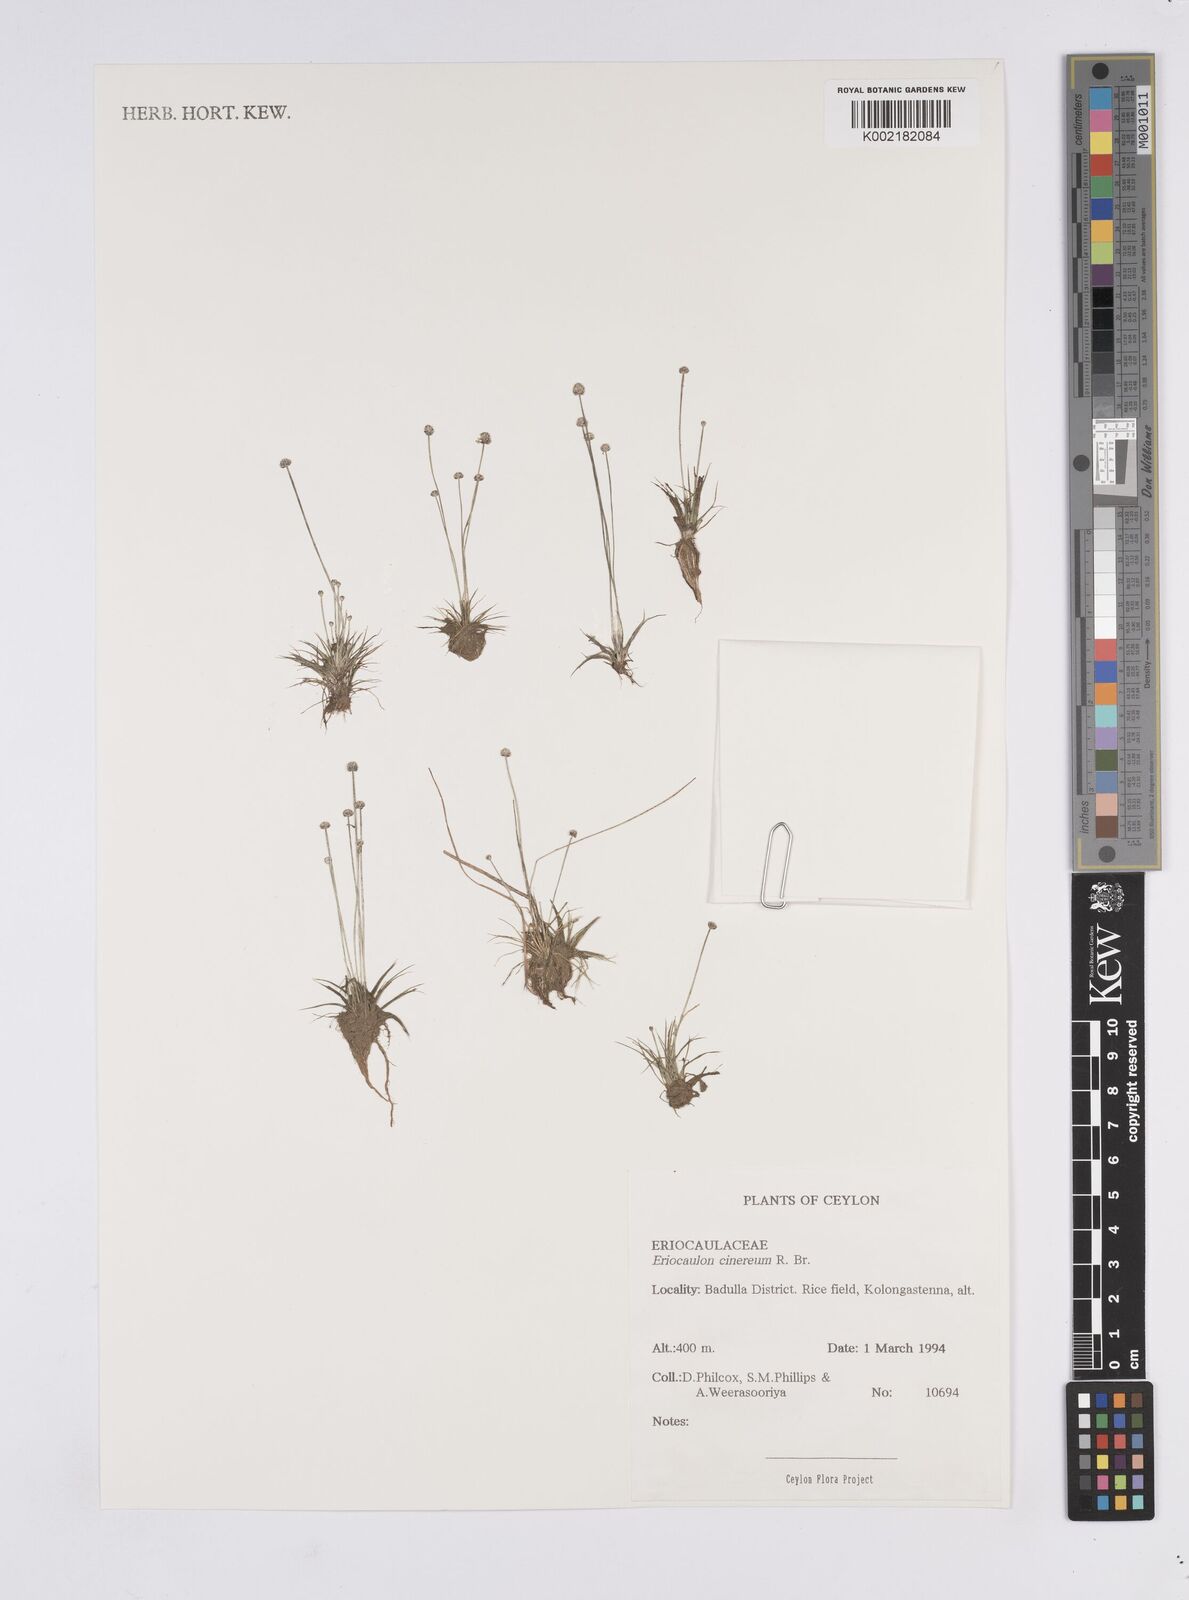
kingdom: Plantae
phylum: Tracheophyta
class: Liliopsida
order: Poales
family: Eriocaulaceae
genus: Eriocaulon
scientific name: Eriocaulon cinereum
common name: Ashy pipewort
